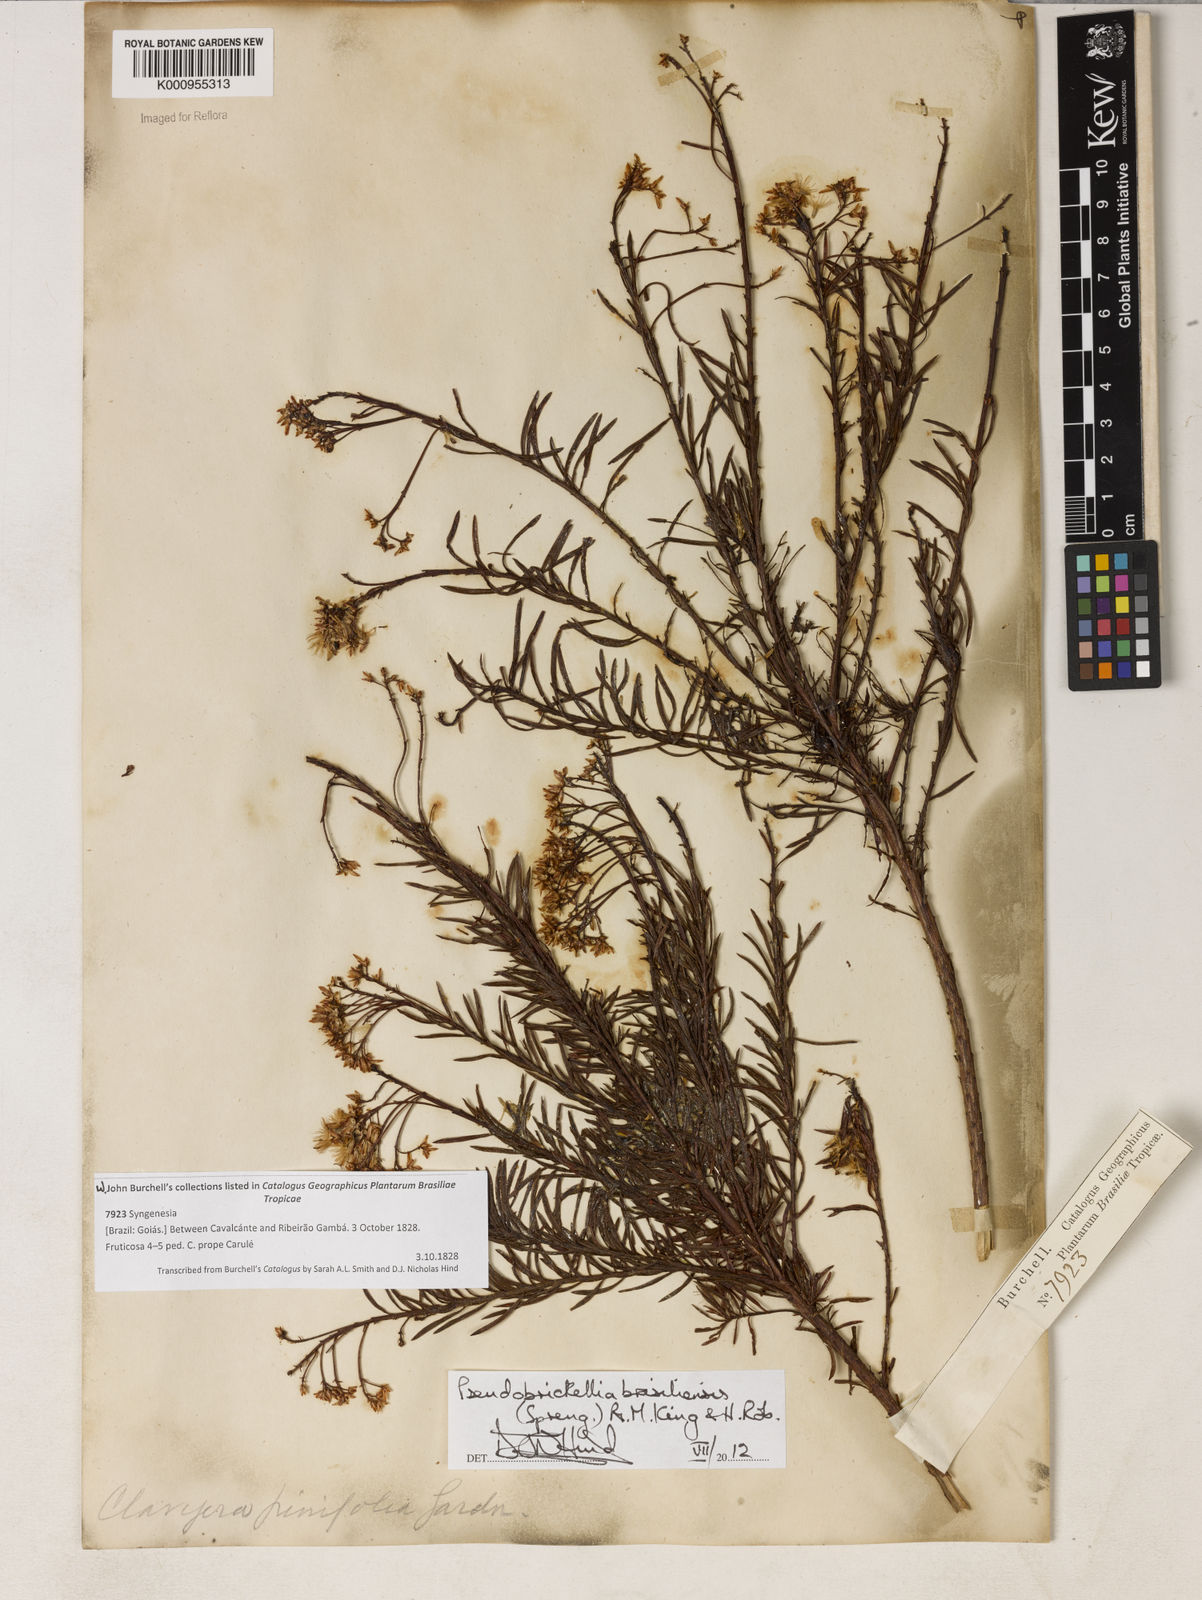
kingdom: Plantae
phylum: Tracheophyta
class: Magnoliopsida
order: Asterales
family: Asteraceae
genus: Pseudobrickellia
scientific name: Pseudobrickellia brasiliensis
